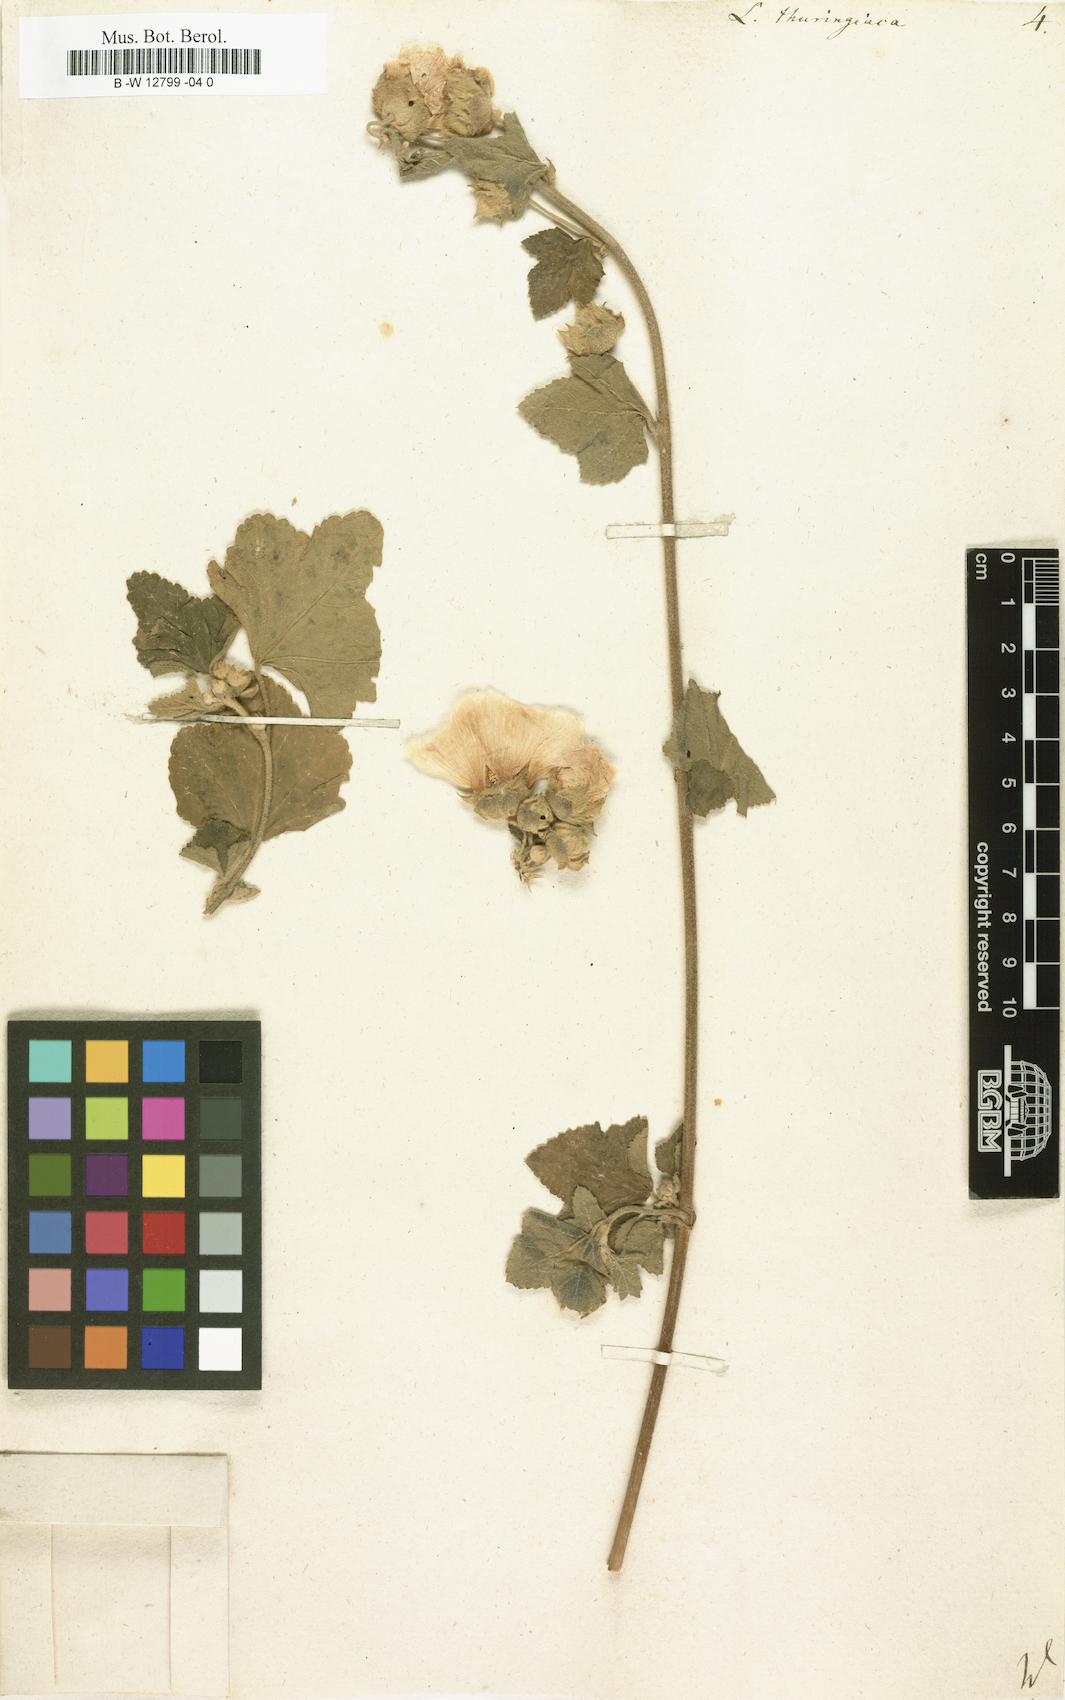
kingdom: Plantae
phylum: Tracheophyta
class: Magnoliopsida
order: Malvales
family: Malvaceae
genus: Malva
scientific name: Malva thuringiaca
